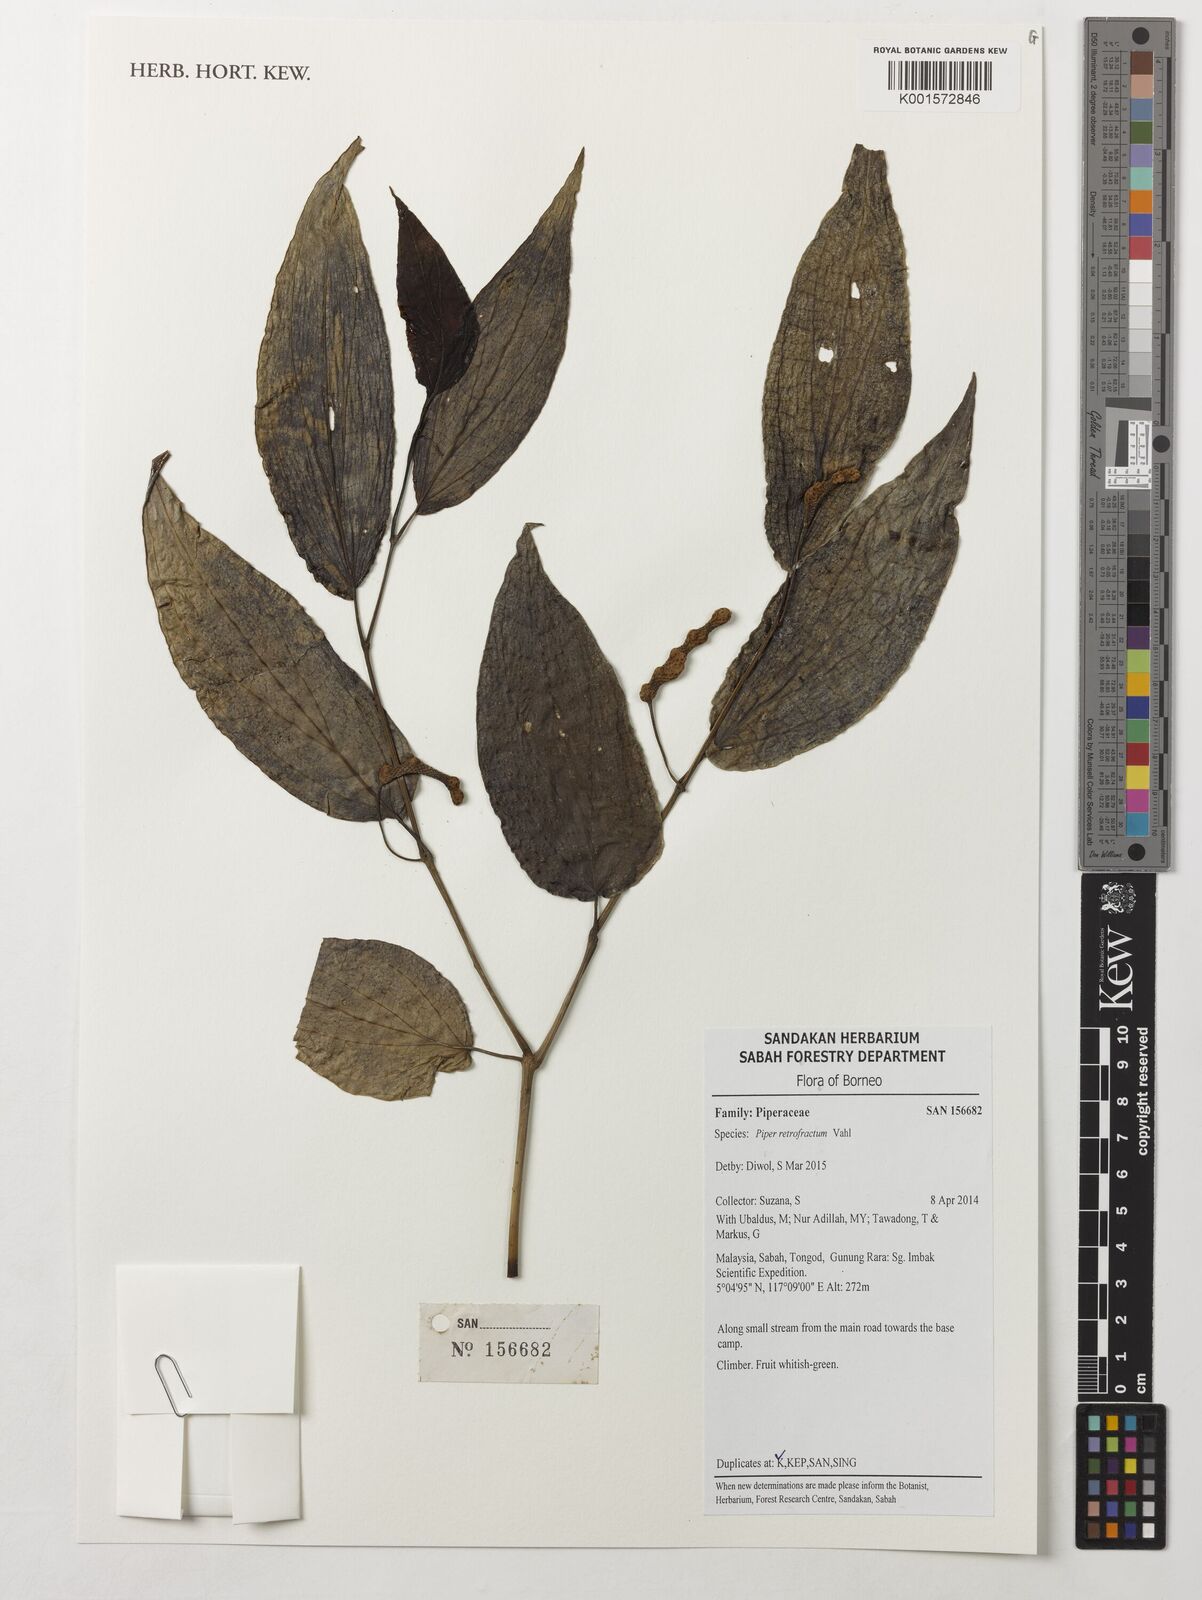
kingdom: Plantae
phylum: Tracheophyta
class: Magnoliopsida
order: Piperales
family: Piperaceae
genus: Piper
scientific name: Piper retrofractum
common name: Javanese long pepper
